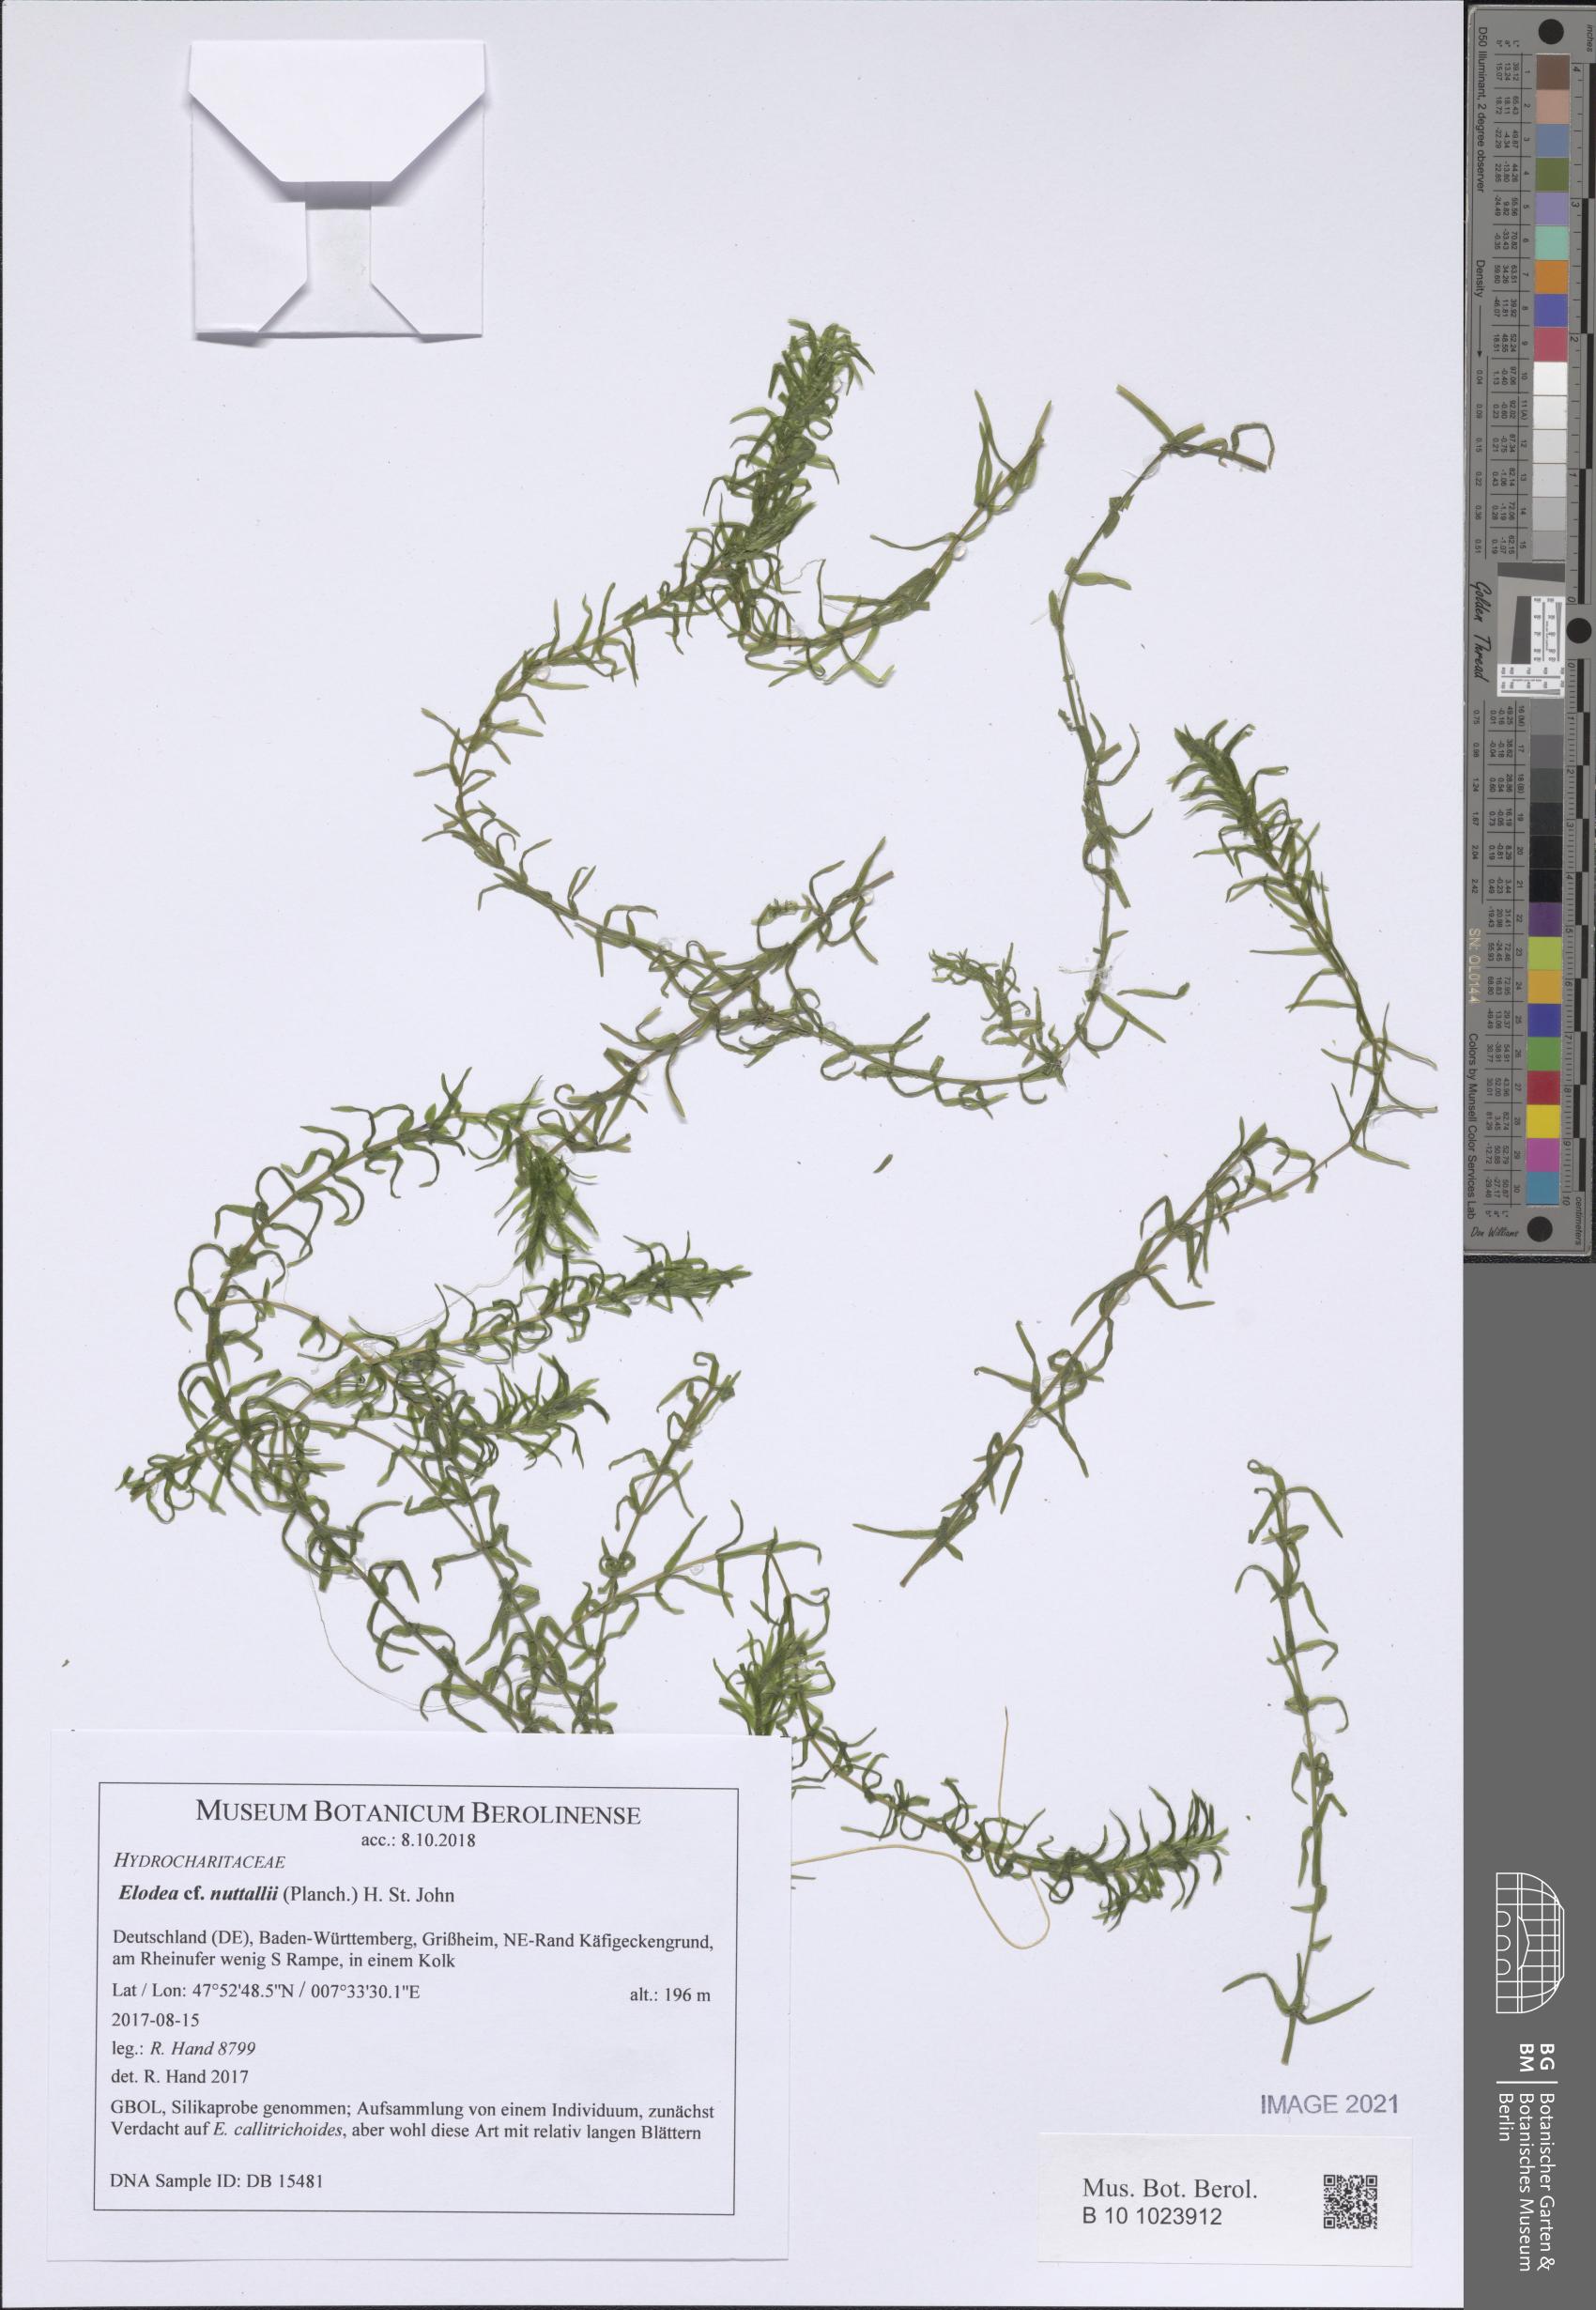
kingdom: Plantae
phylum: Tracheophyta
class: Liliopsida
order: Alismatales
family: Hydrocharitaceae
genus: Elodea
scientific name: Elodea nuttallii
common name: Nuttall's waterweed
